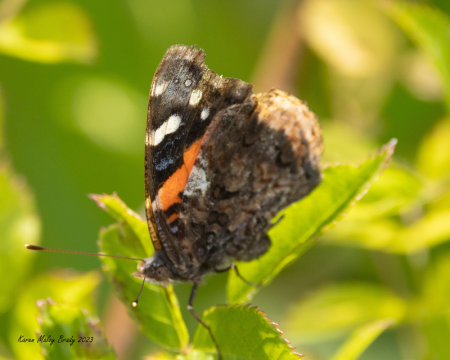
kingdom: Animalia
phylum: Arthropoda
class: Insecta
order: Lepidoptera
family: Nymphalidae
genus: Vanessa
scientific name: Vanessa atalanta
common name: Red Admiral
